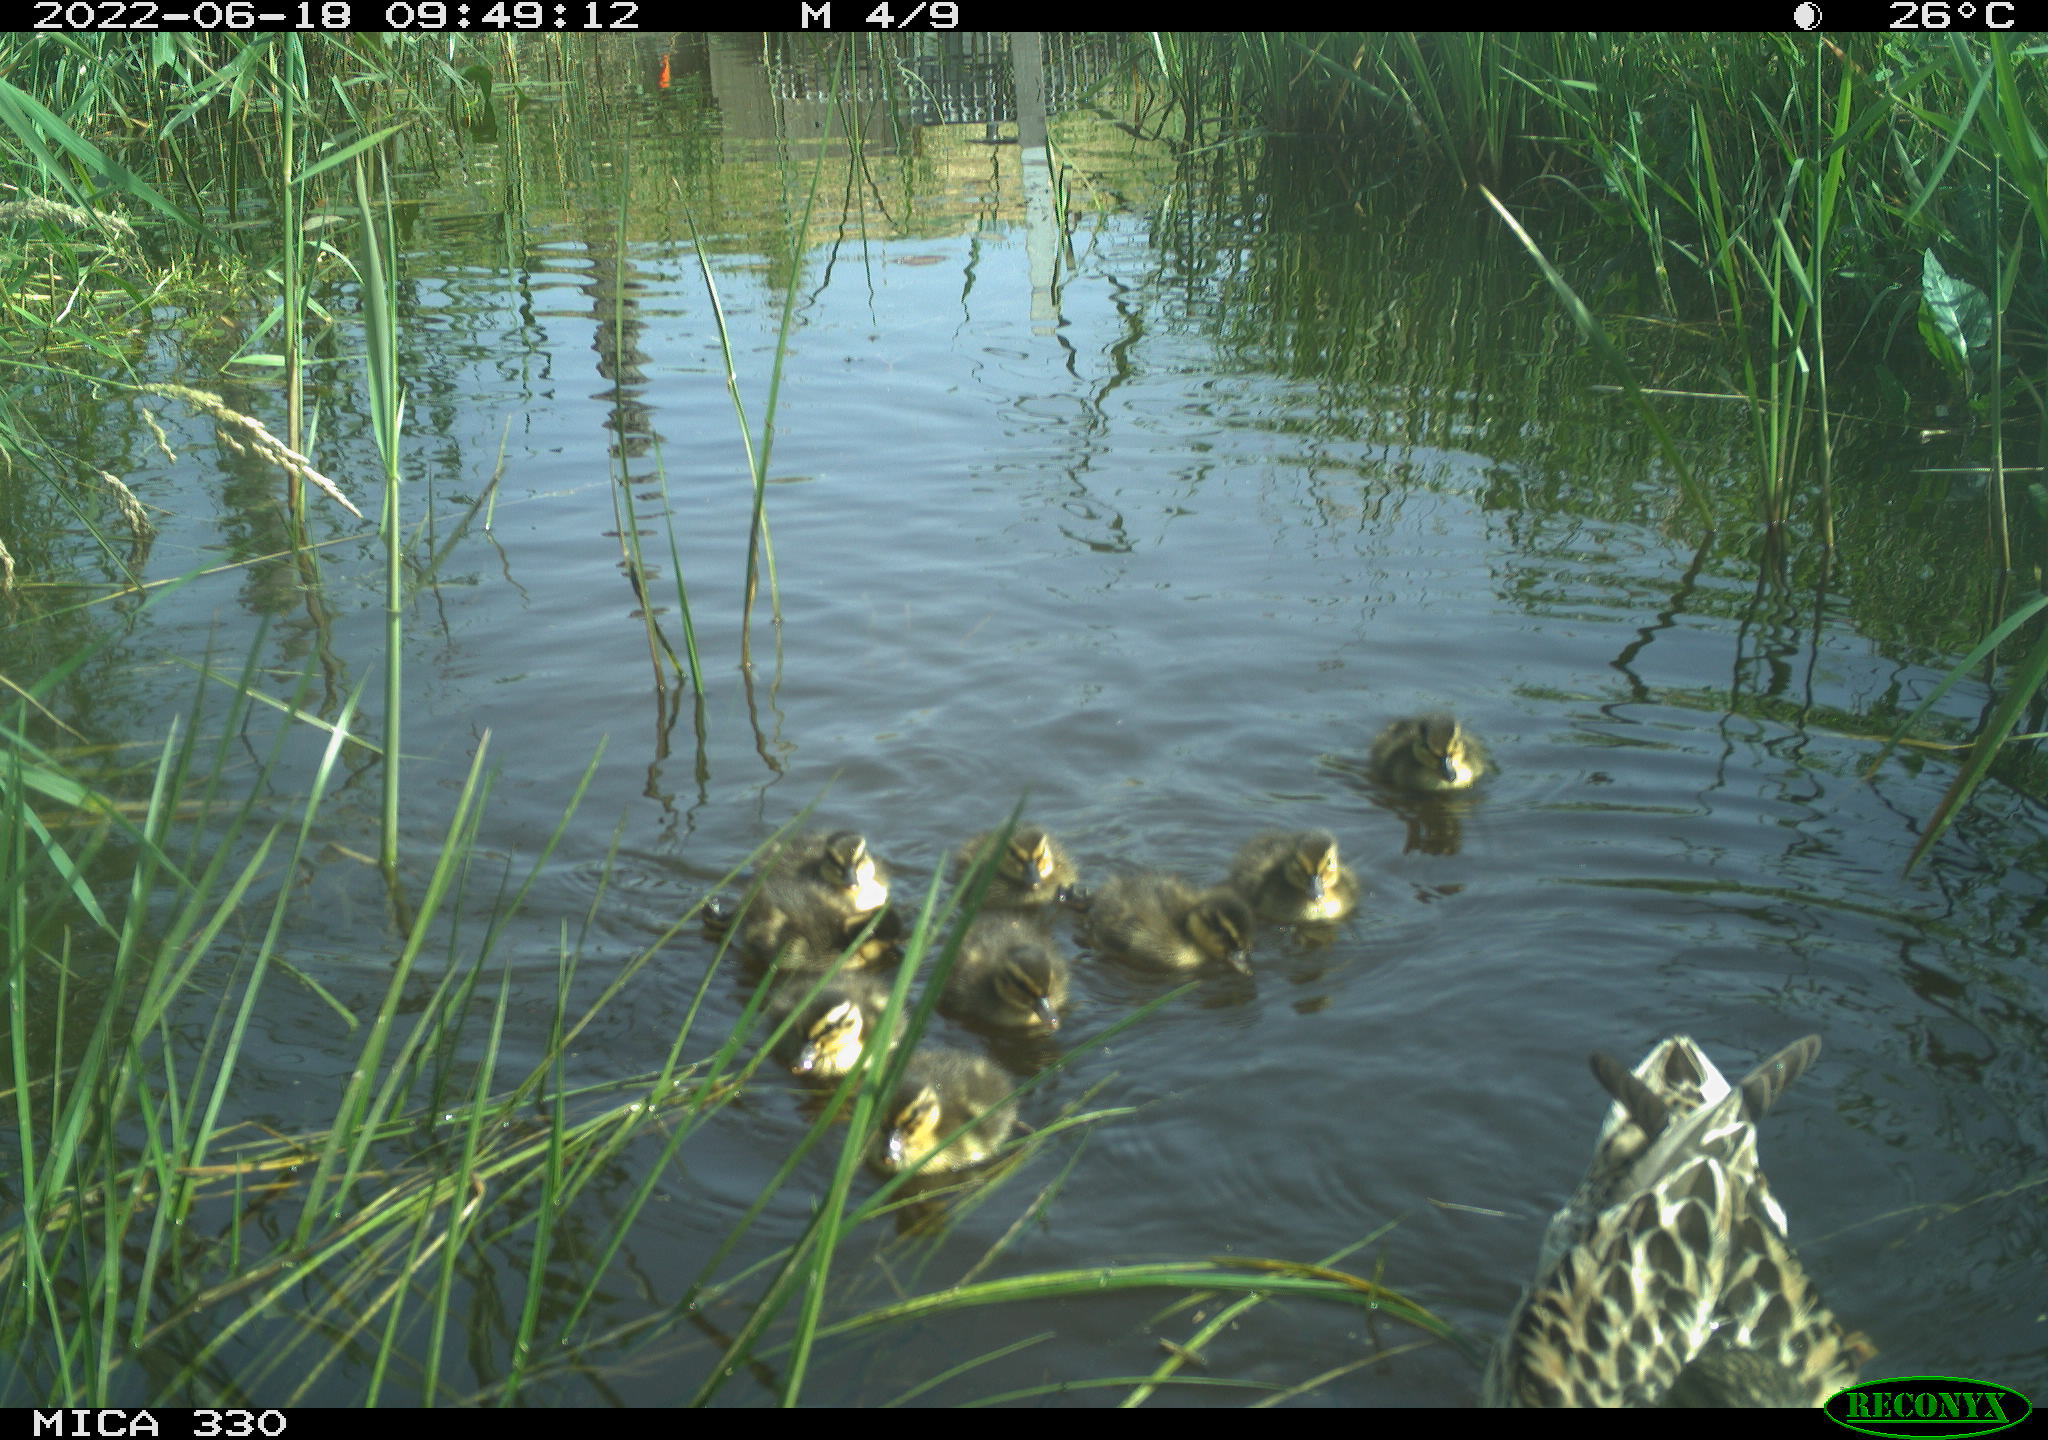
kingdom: Animalia
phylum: Chordata
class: Aves
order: Anseriformes
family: Anatidae
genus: Mareca
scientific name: Mareca strepera
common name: Gadwall
